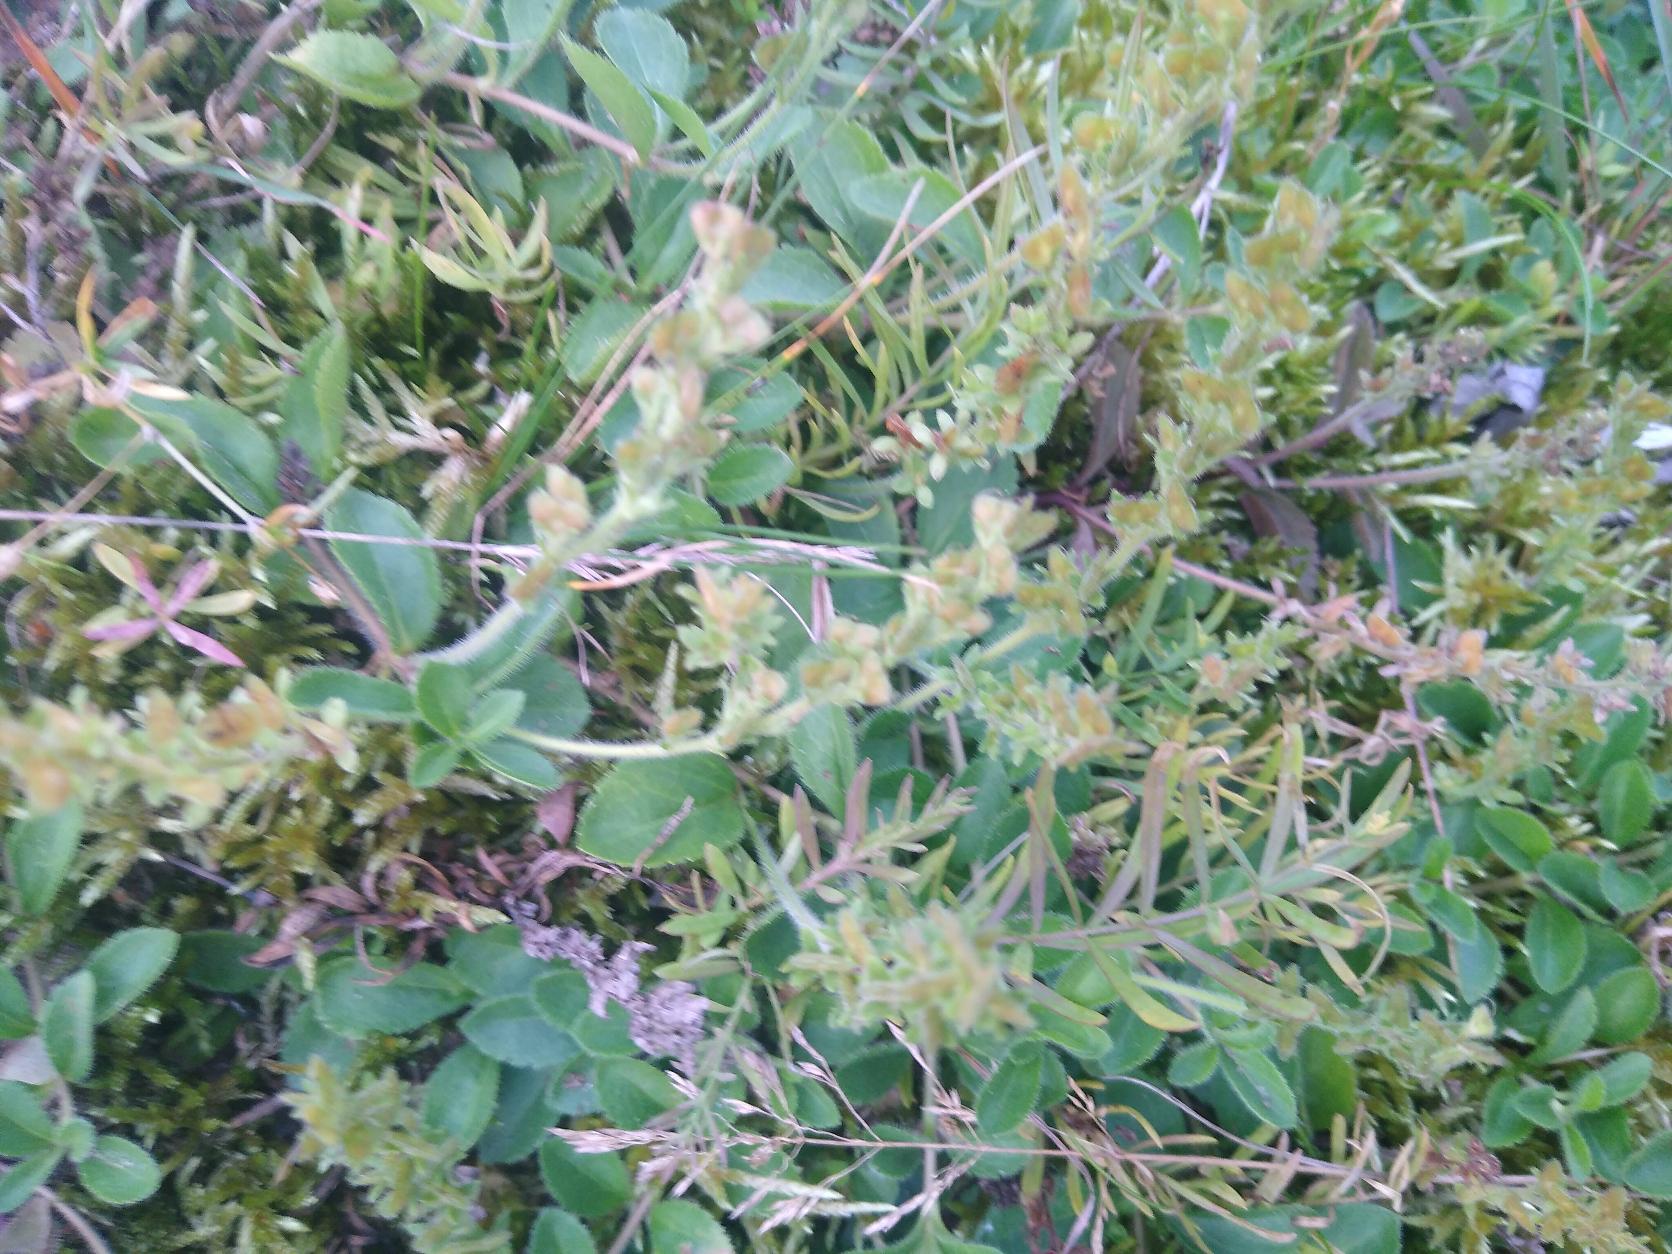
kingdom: Plantae
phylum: Tracheophyta
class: Magnoliopsida
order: Lamiales
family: Plantaginaceae
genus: Veronica
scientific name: Veronica officinalis
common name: Læge-ærenpris
